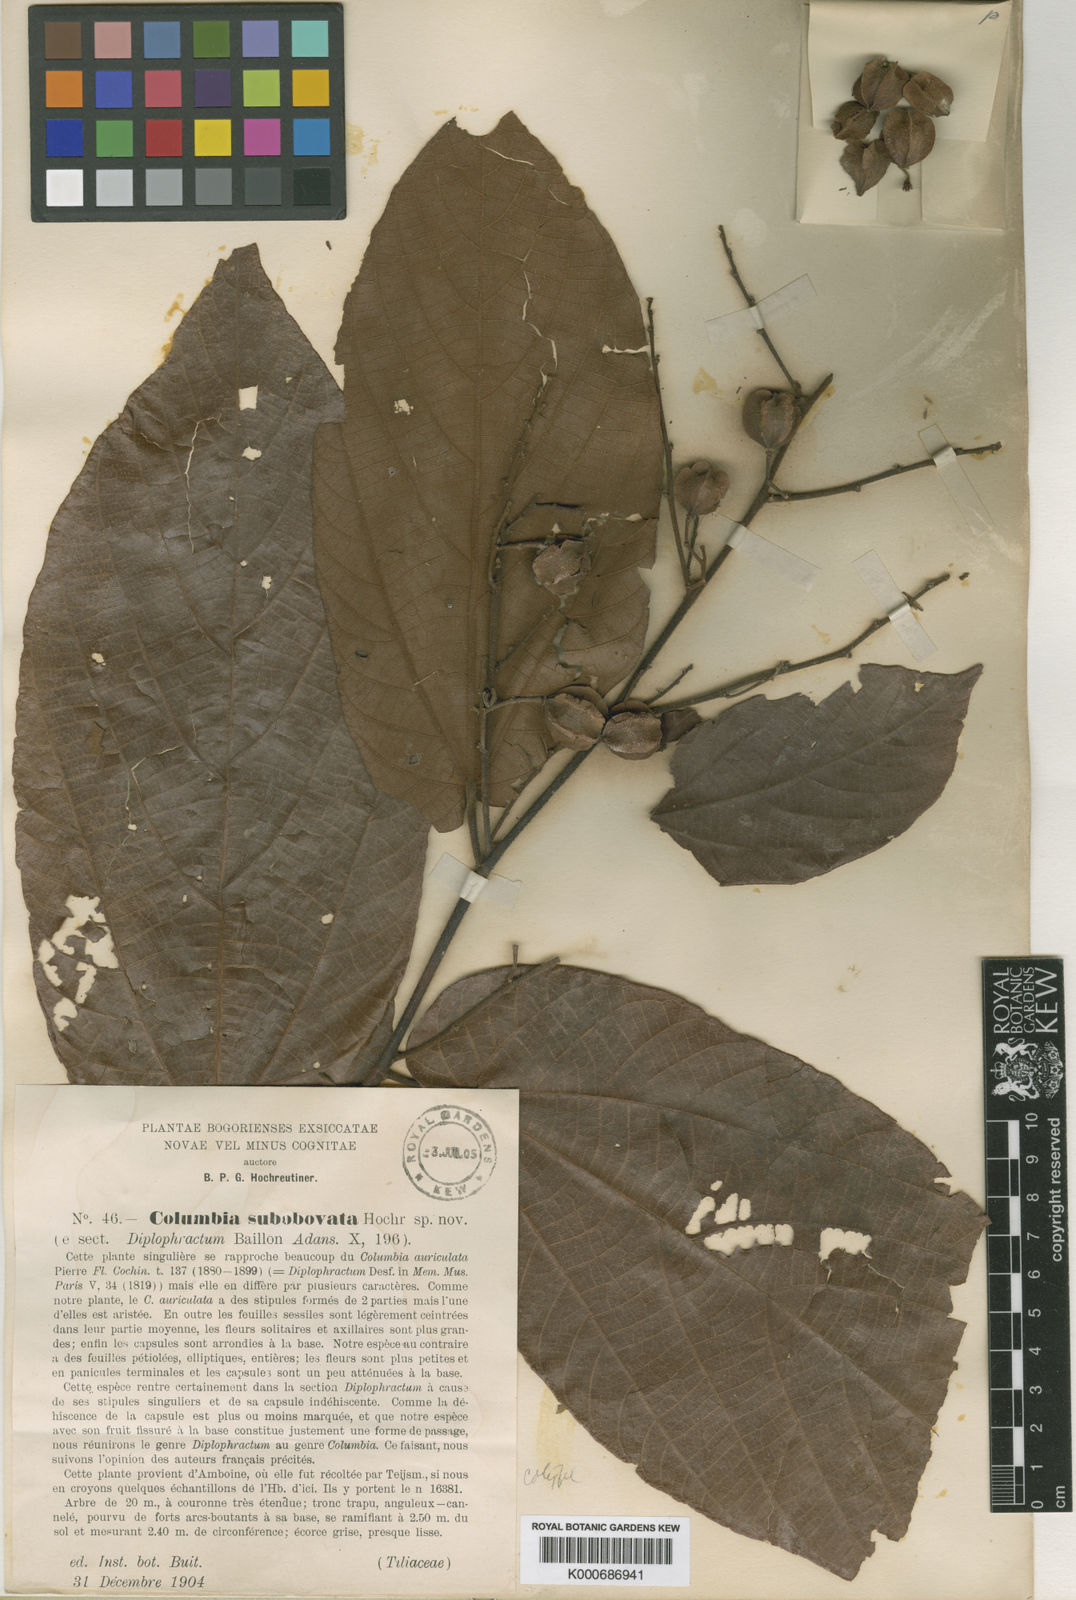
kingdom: Plantae
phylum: Tracheophyta
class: Magnoliopsida
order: Malvales
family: Malvaceae
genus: Colona
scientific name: Colona scabra
